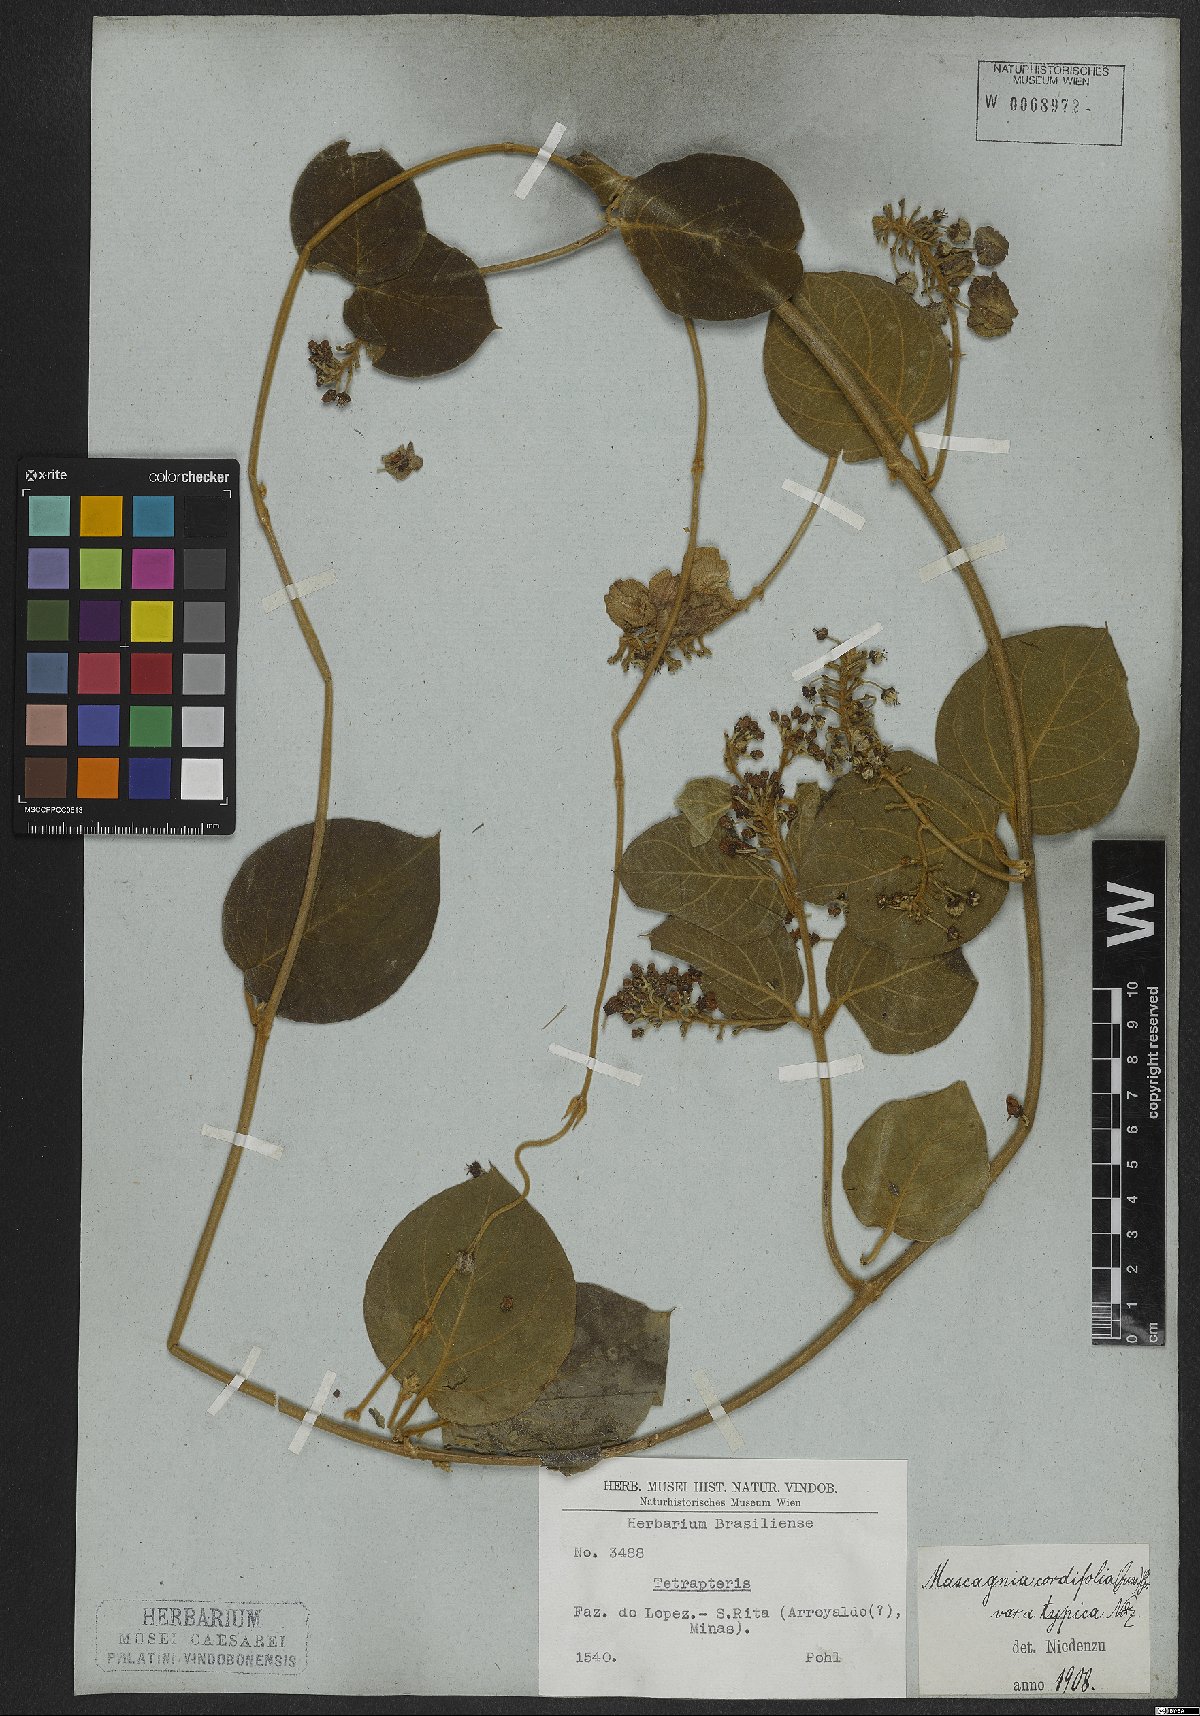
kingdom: Plantae
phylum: Tracheophyta
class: Magnoliopsida
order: Malpighiales
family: Malpighiaceae
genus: Mascagnia
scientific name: Mascagnia cordifolia
